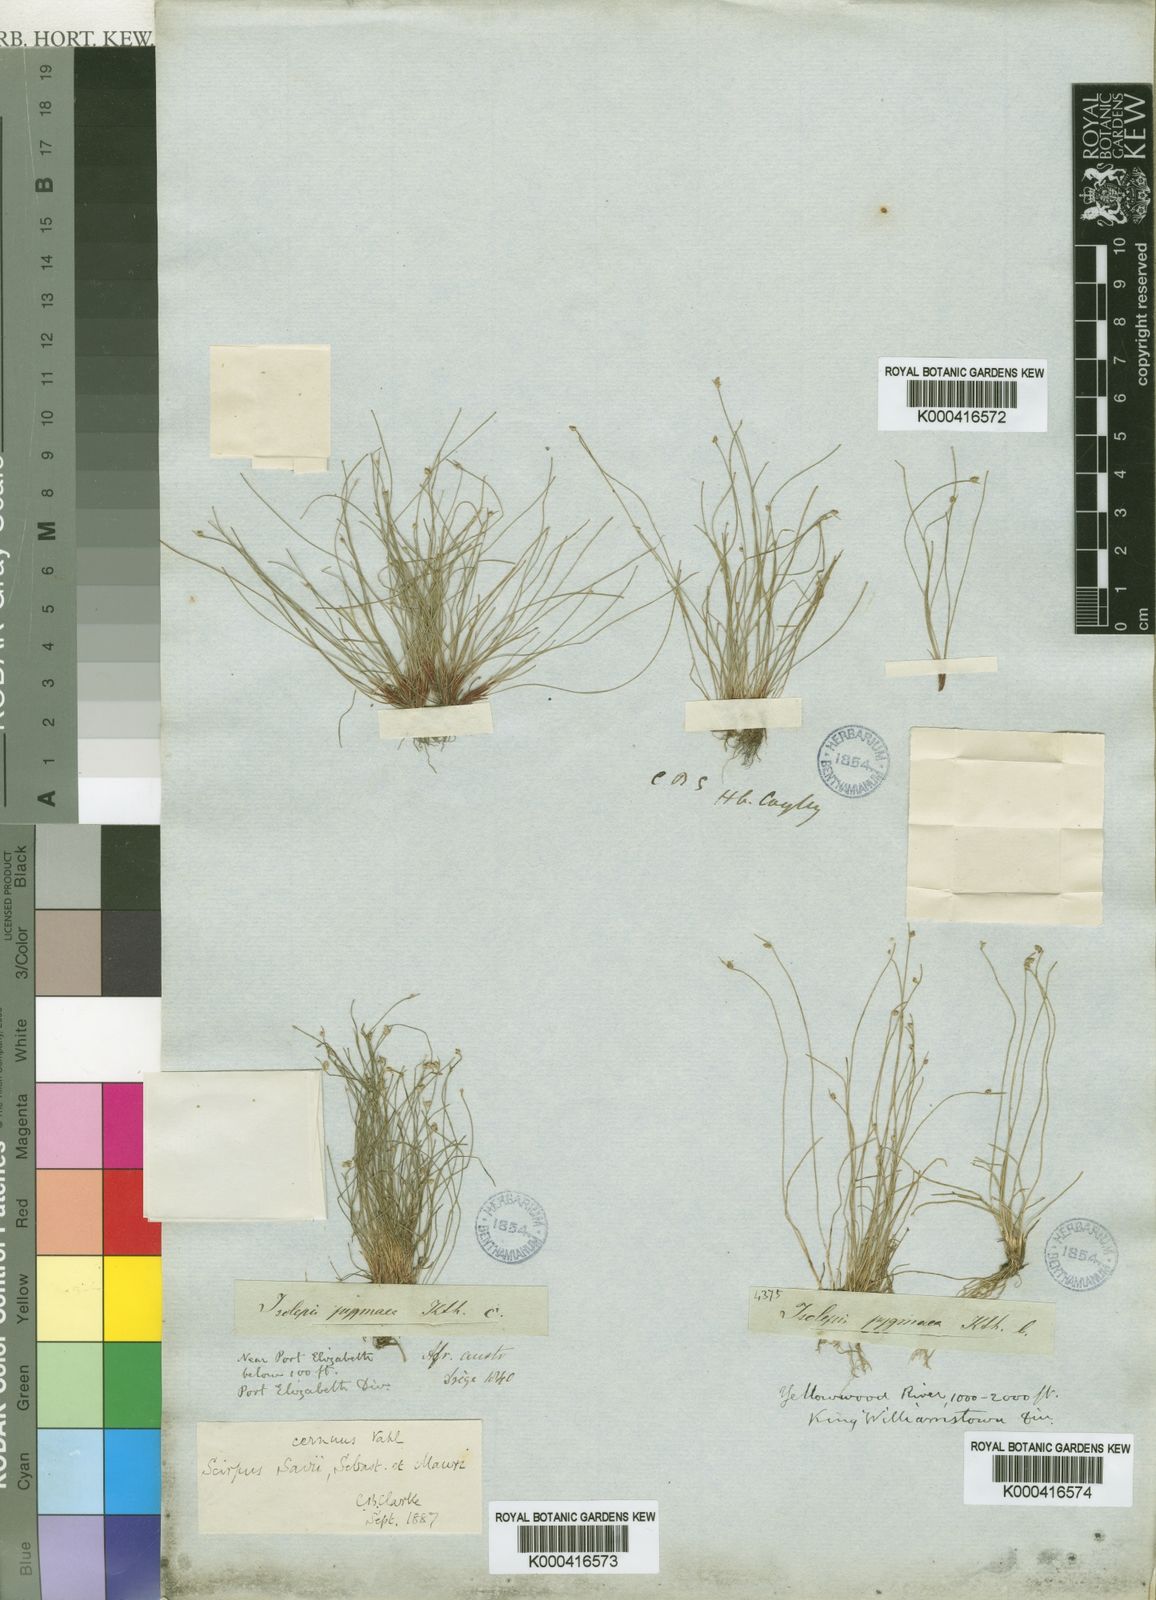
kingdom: Plantae
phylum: Tracheophyta
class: Liliopsida
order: Poales
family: Cyperaceae
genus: Isolepis
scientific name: Isolepis cernua
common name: Slender club-rush
